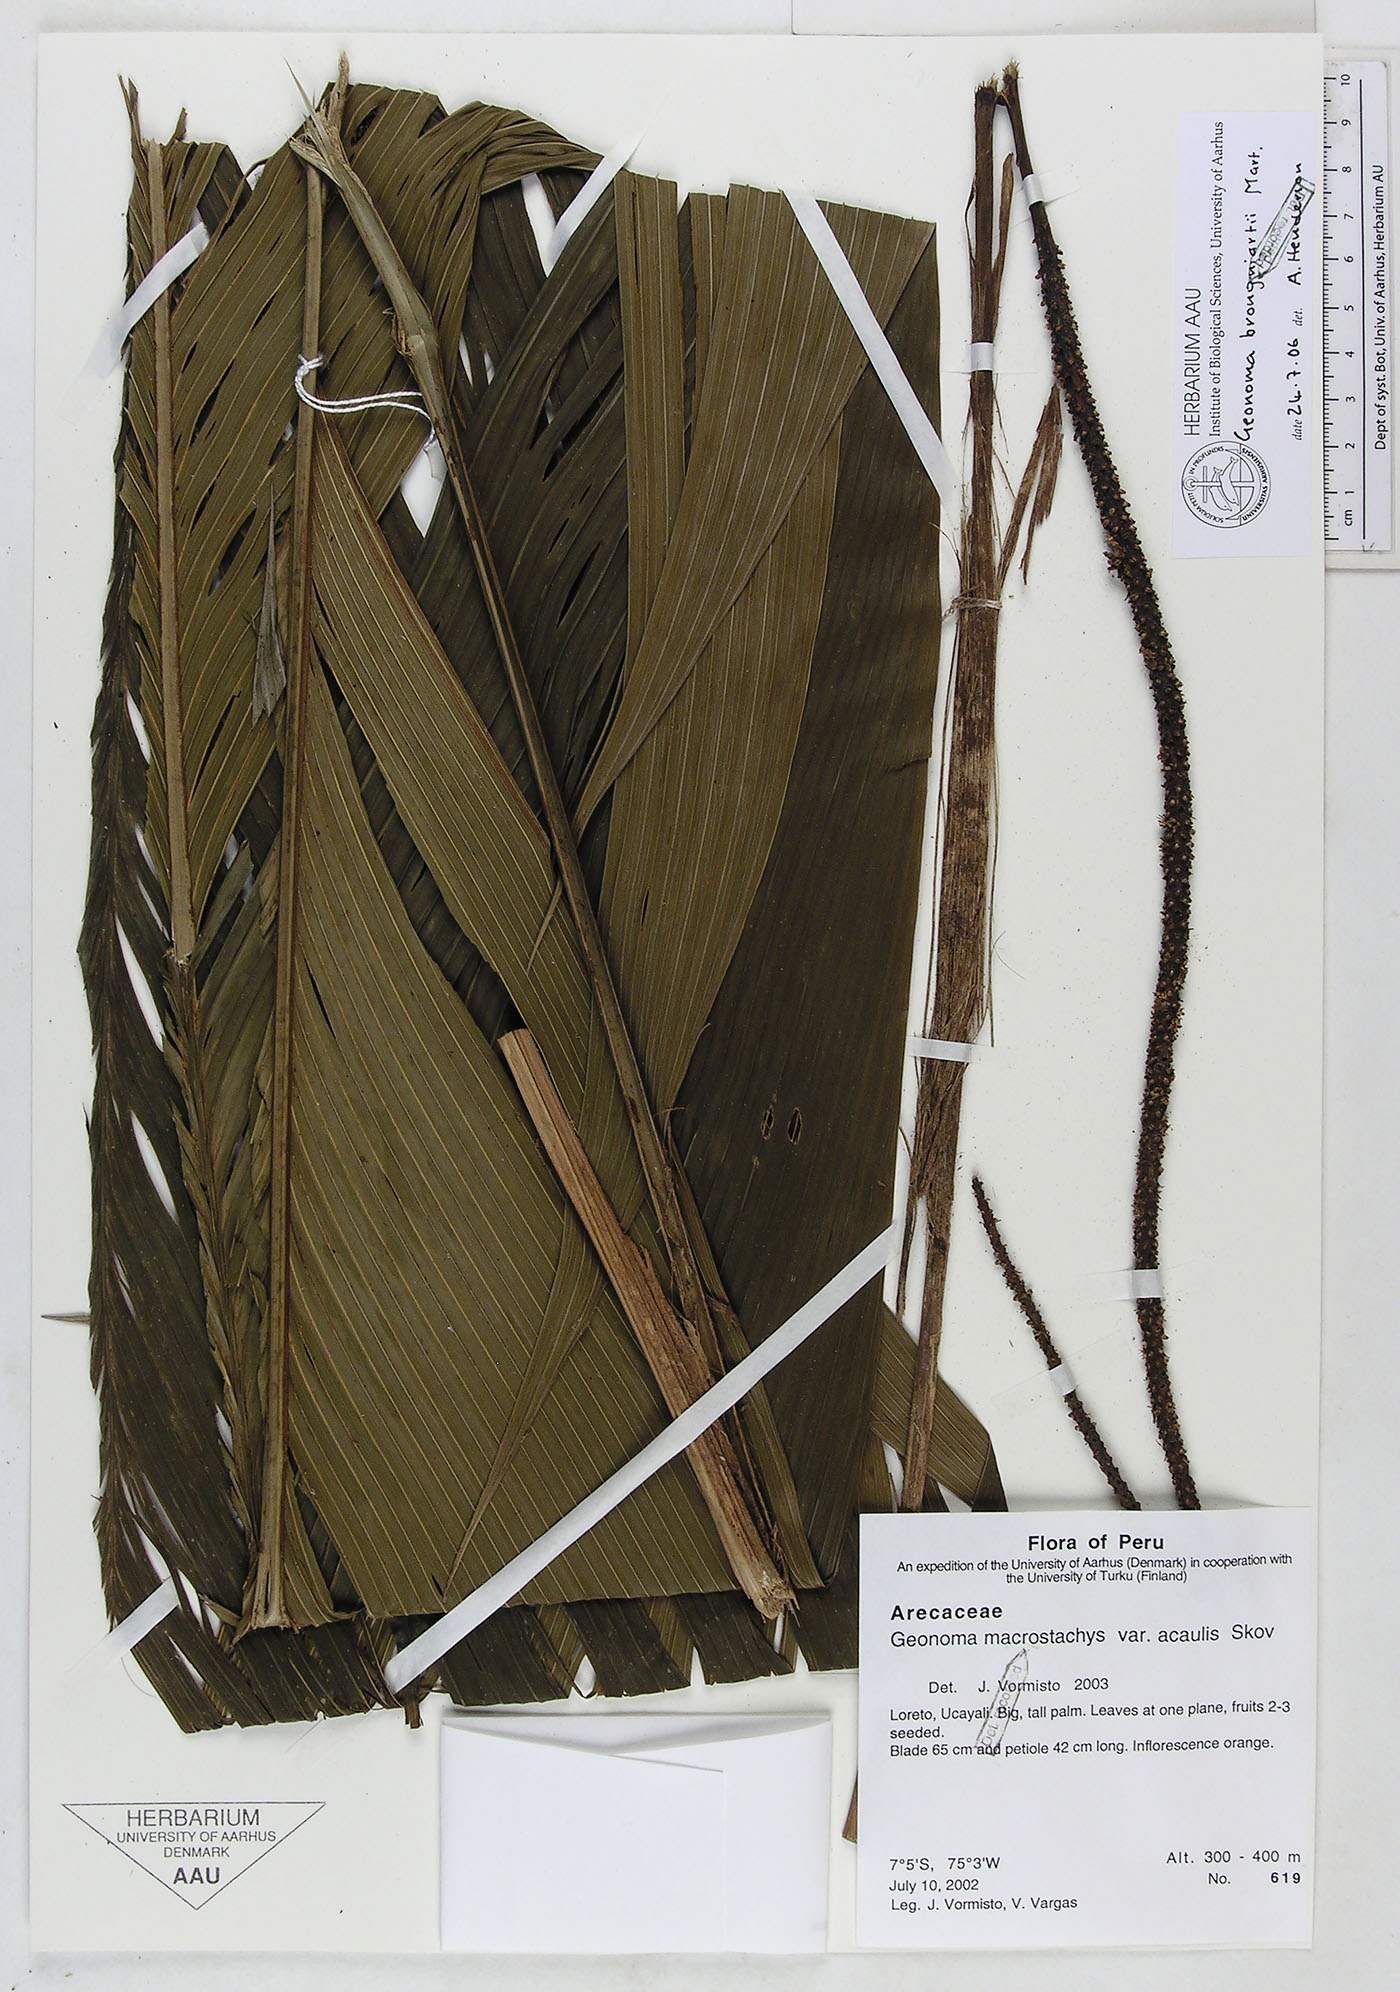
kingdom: Plantae
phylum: Tracheophyta
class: Liliopsida
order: Arecales
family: Arecaceae
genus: Geonoma
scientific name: Geonoma brongniartii
